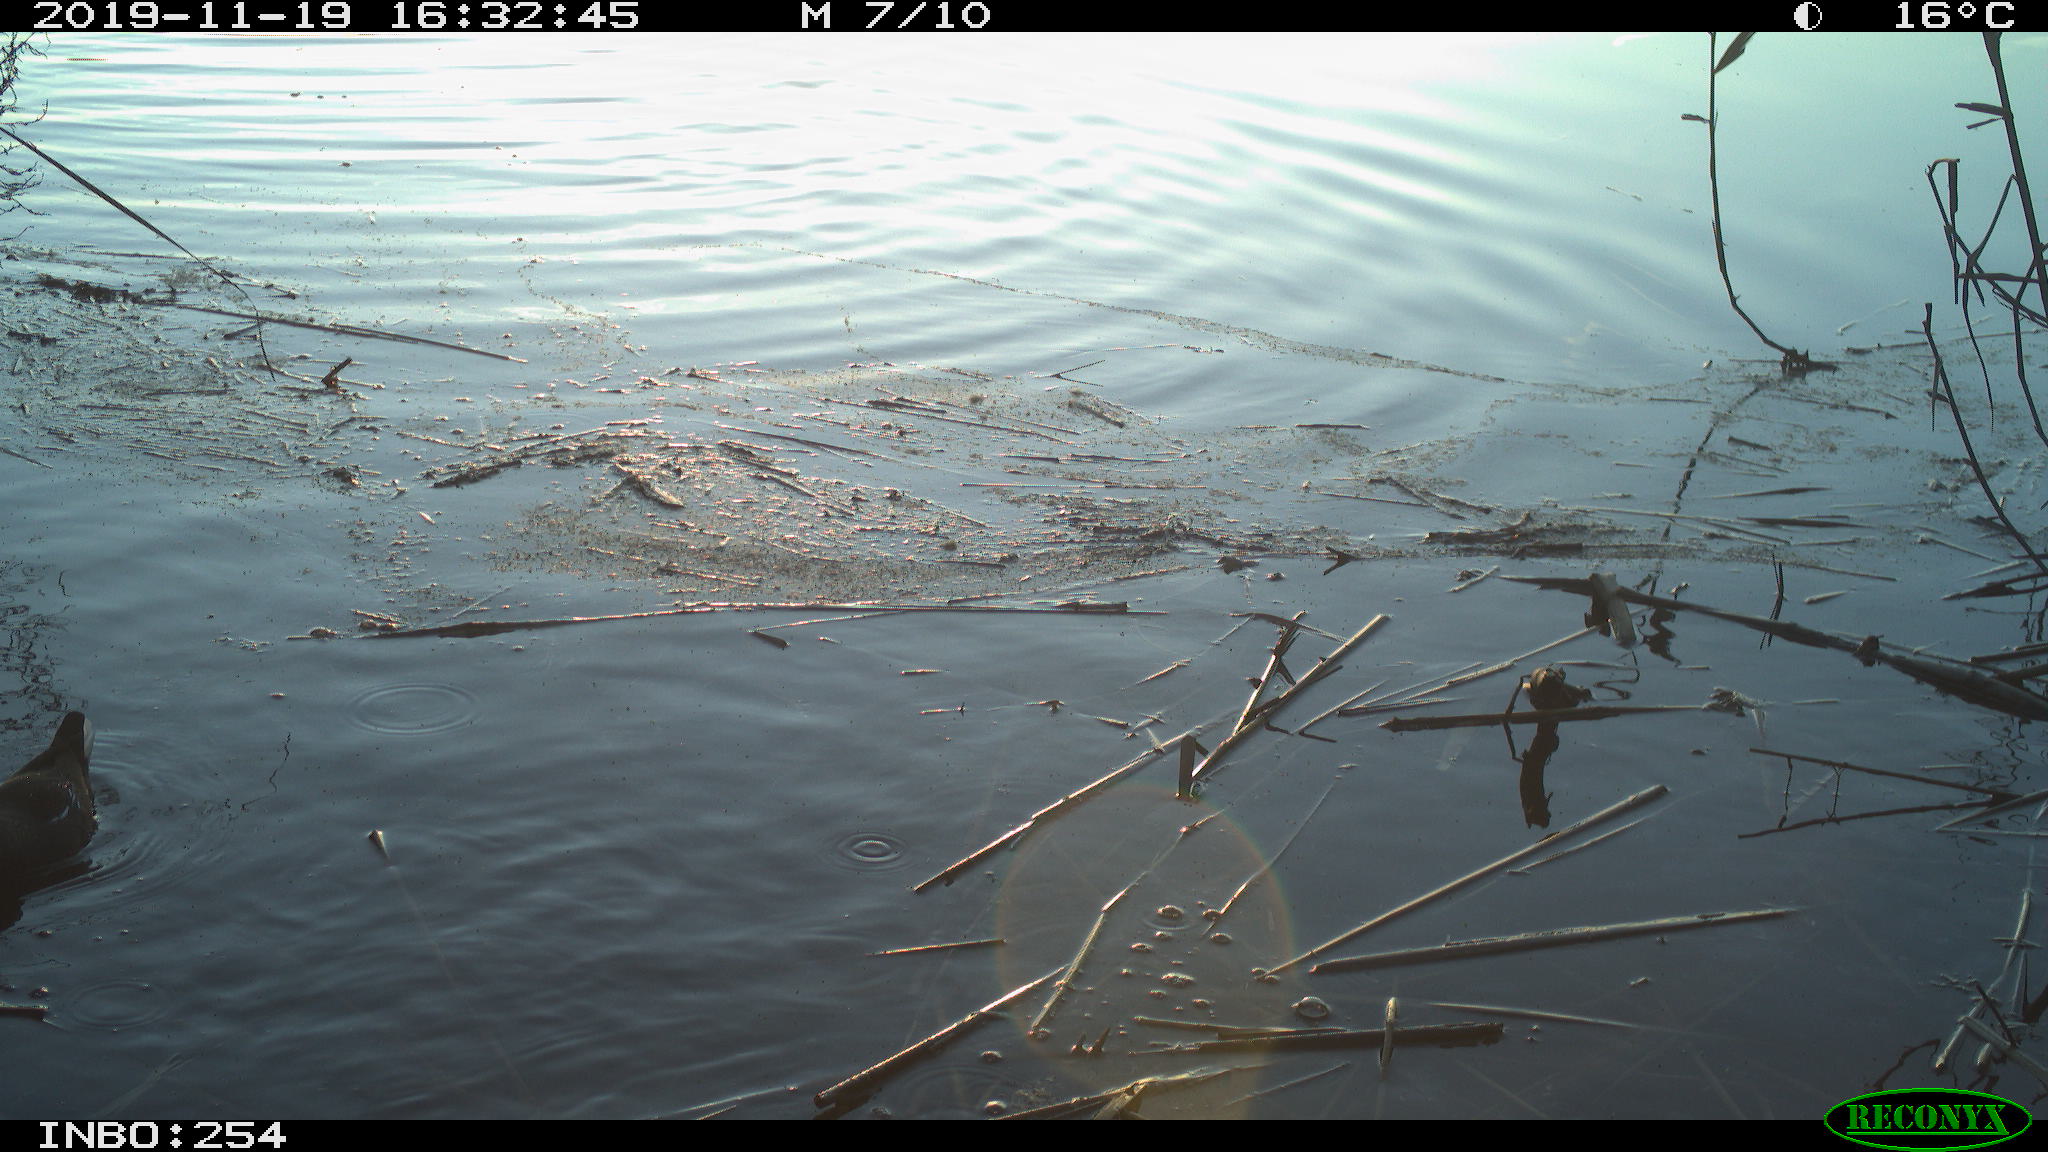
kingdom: Animalia
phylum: Chordata
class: Aves
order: Gruiformes
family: Rallidae
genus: Gallinula
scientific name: Gallinula chloropus
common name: Common moorhen
